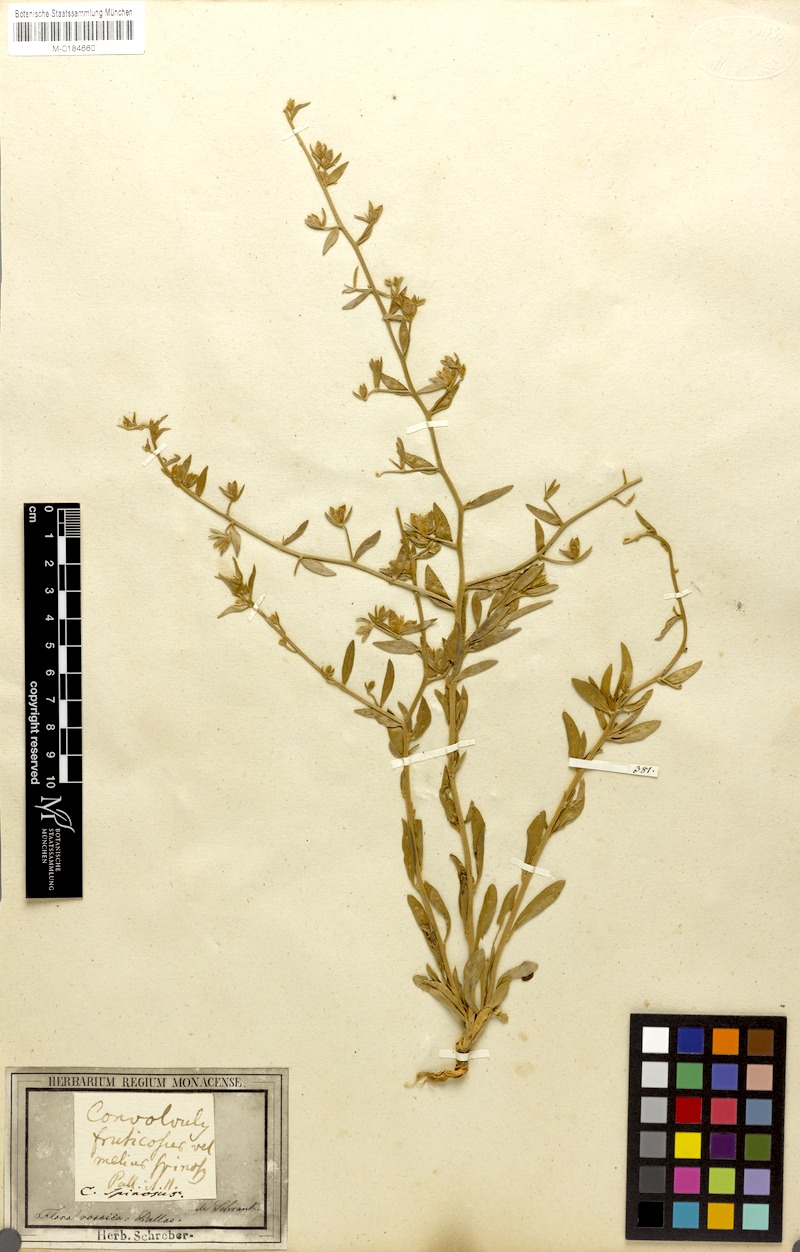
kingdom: Plantae
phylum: Tracheophyta
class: Magnoliopsida
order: Solanales
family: Convolvulaceae
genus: Convolvulus
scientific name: Convolvulus fruticosus
